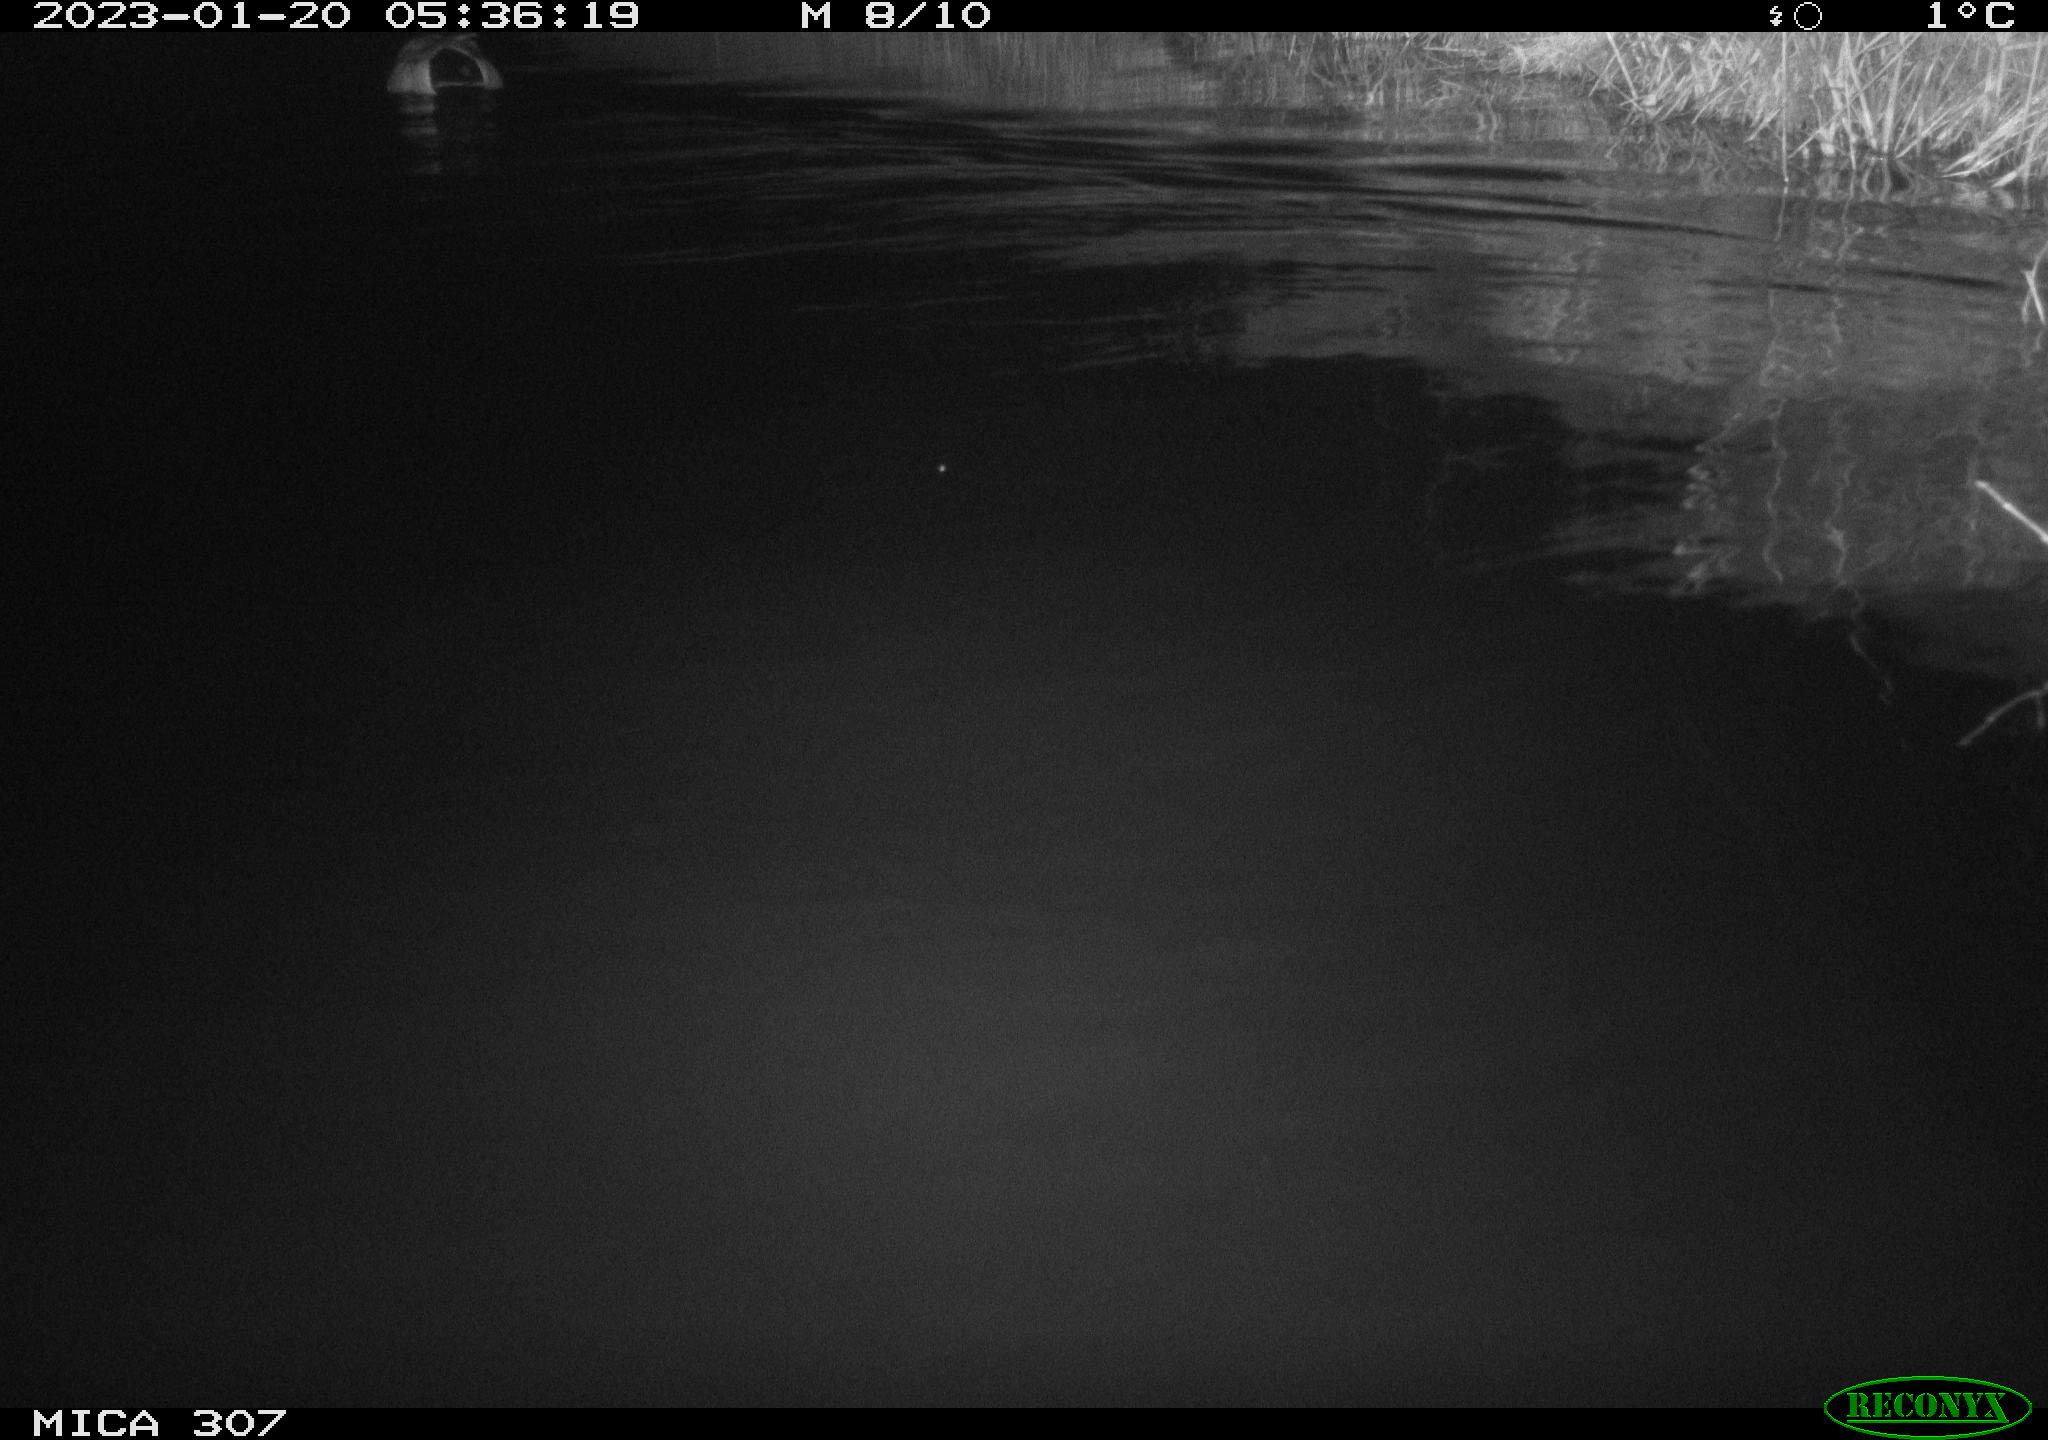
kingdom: Animalia
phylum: Chordata
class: Aves
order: Anseriformes
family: Anatidae
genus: Anas
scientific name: Anas
